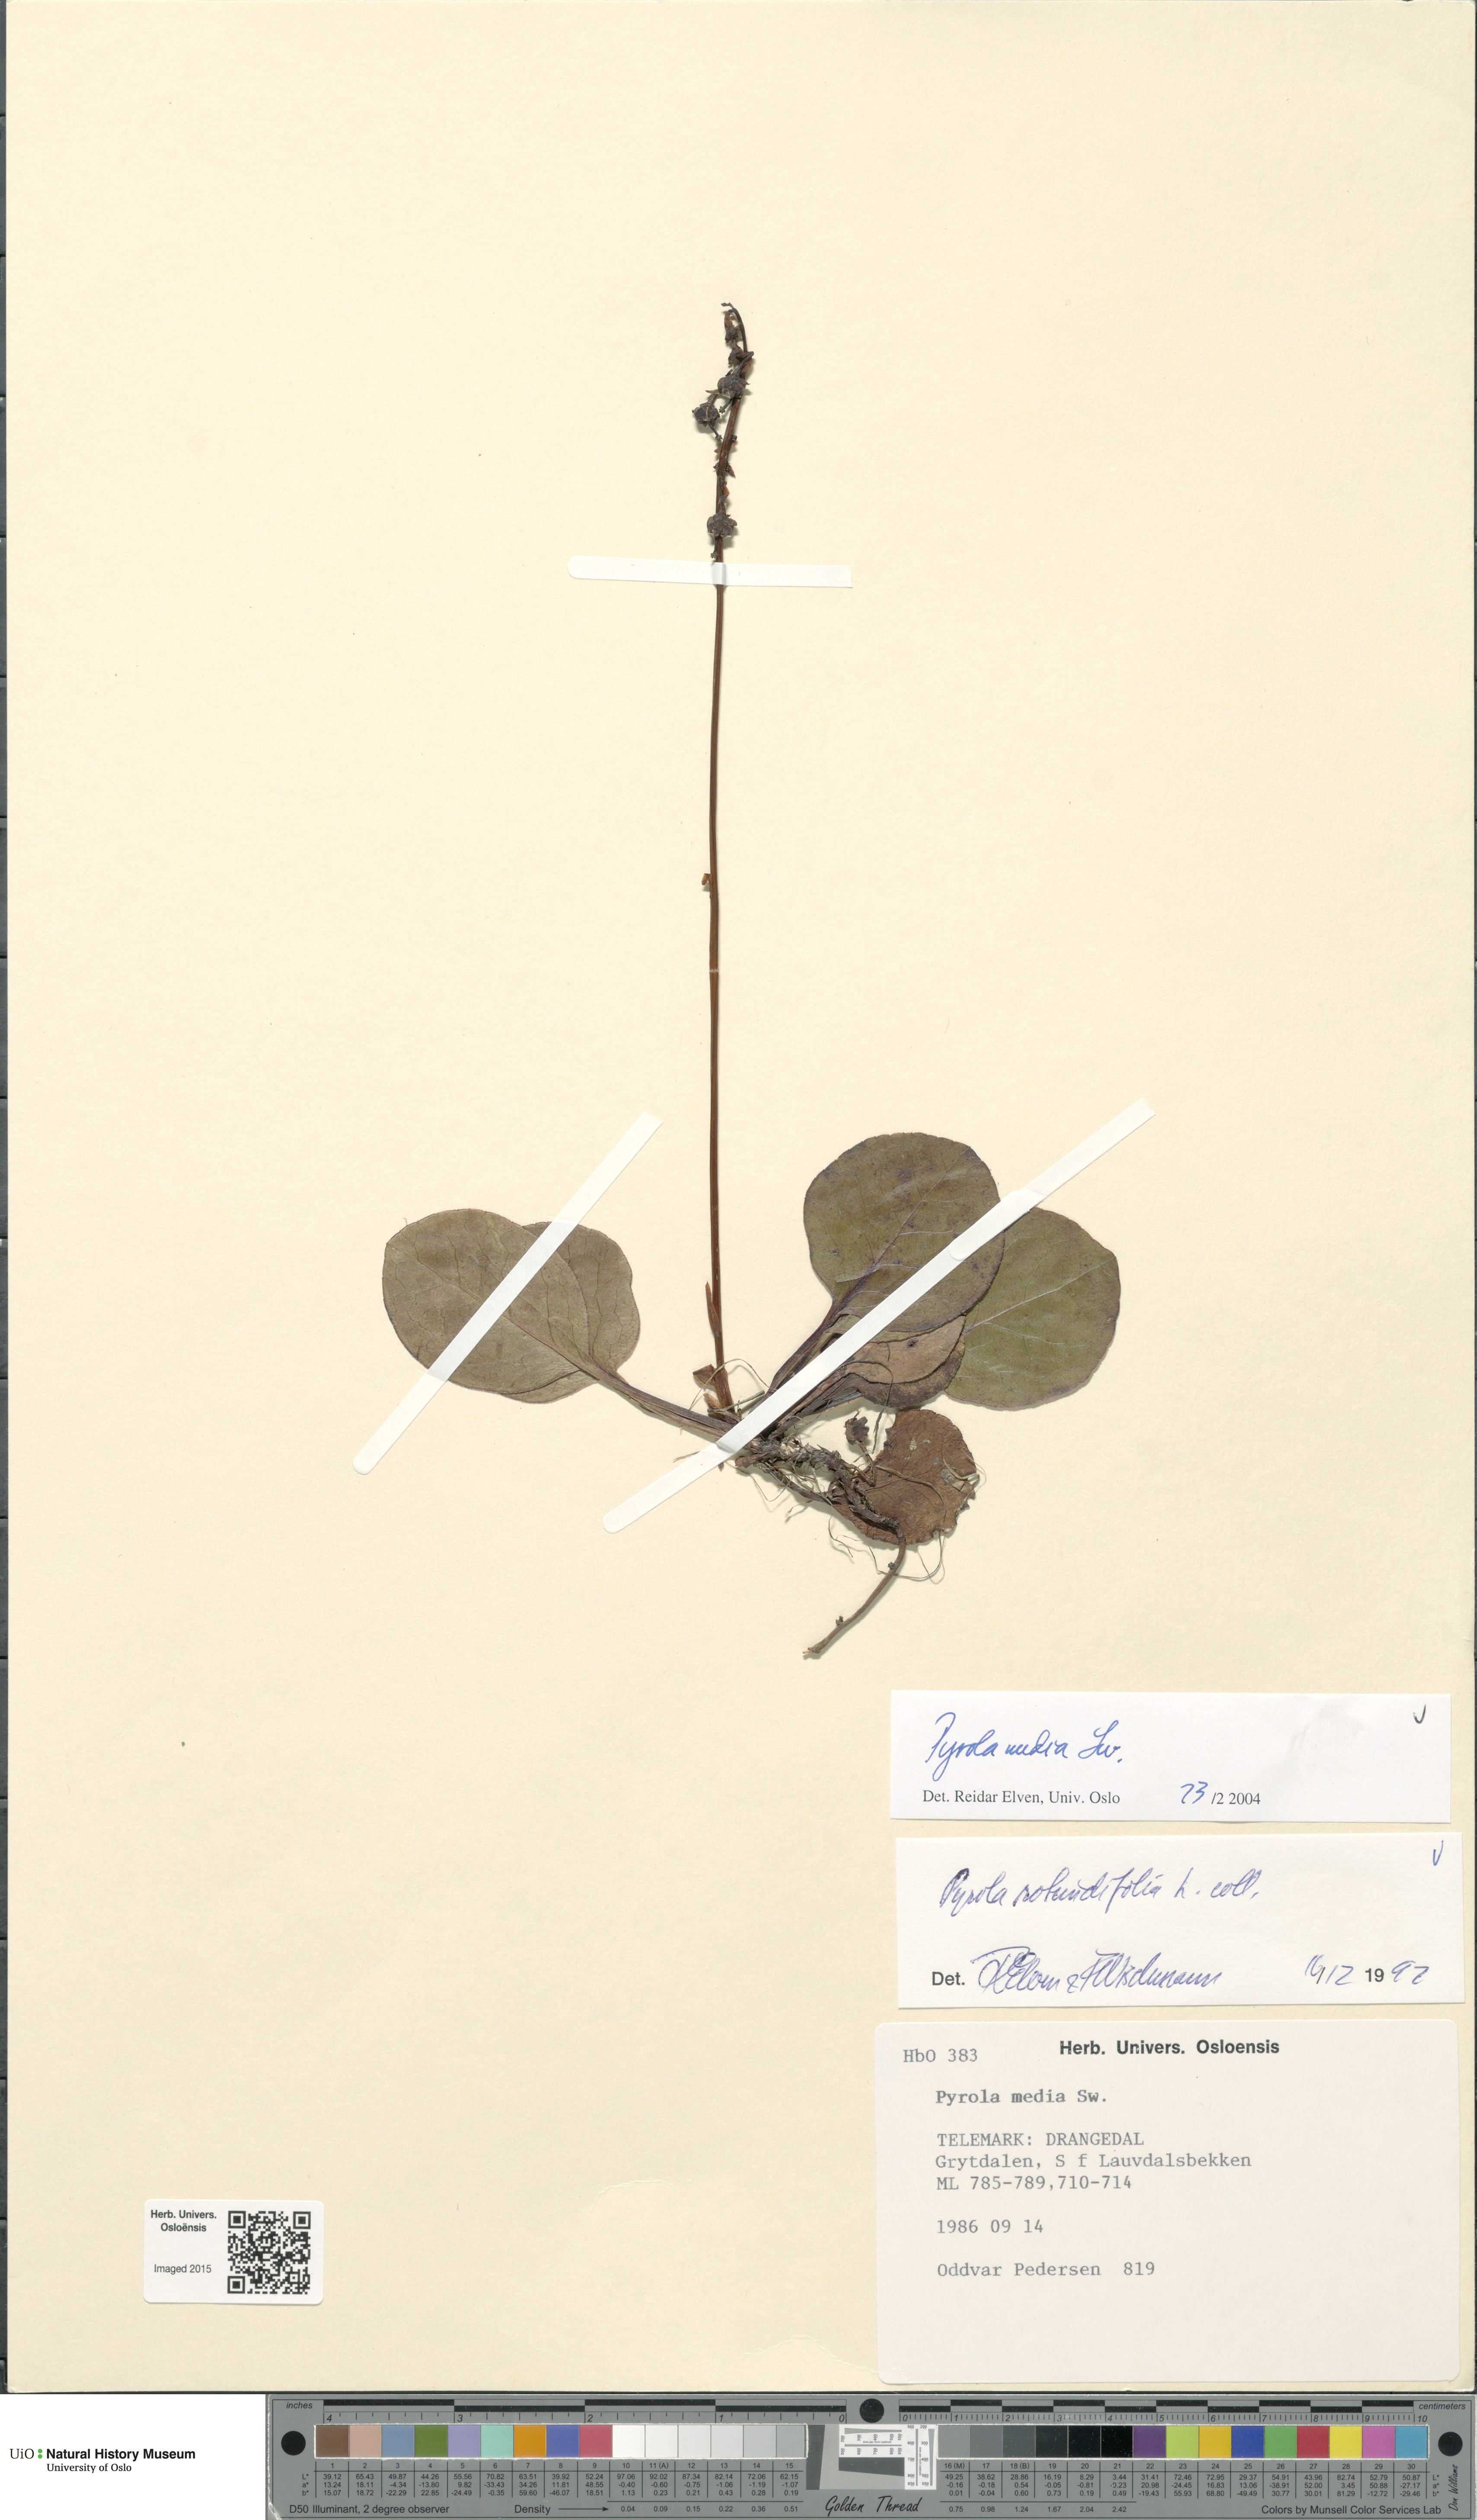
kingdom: Plantae
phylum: Tracheophyta
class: Magnoliopsida
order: Ericales
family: Ericaceae
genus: Pyrola
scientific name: Pyrola media
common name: Intermediate wintergreen
